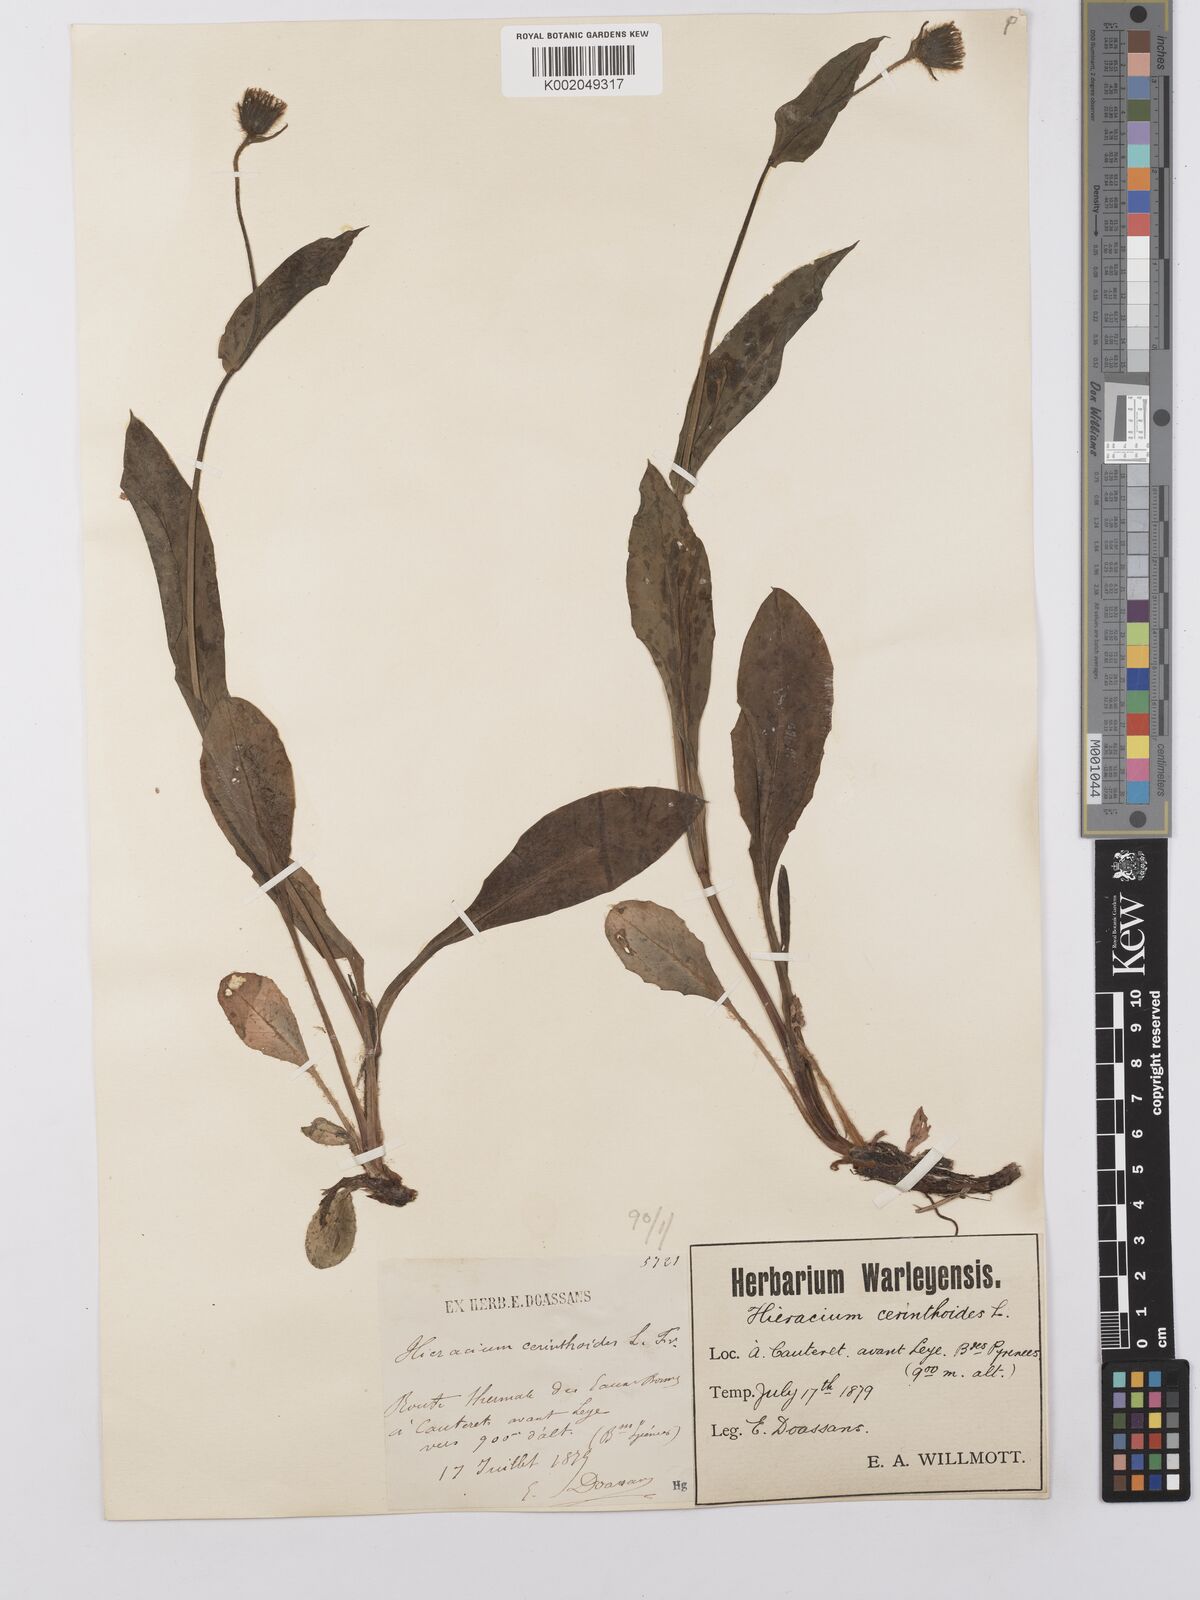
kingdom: Plantae
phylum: Tracheophyta
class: Magnoliopsida
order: Asterales
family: Asteraceae
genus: Hieracium
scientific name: Hieracium cerinthoides
